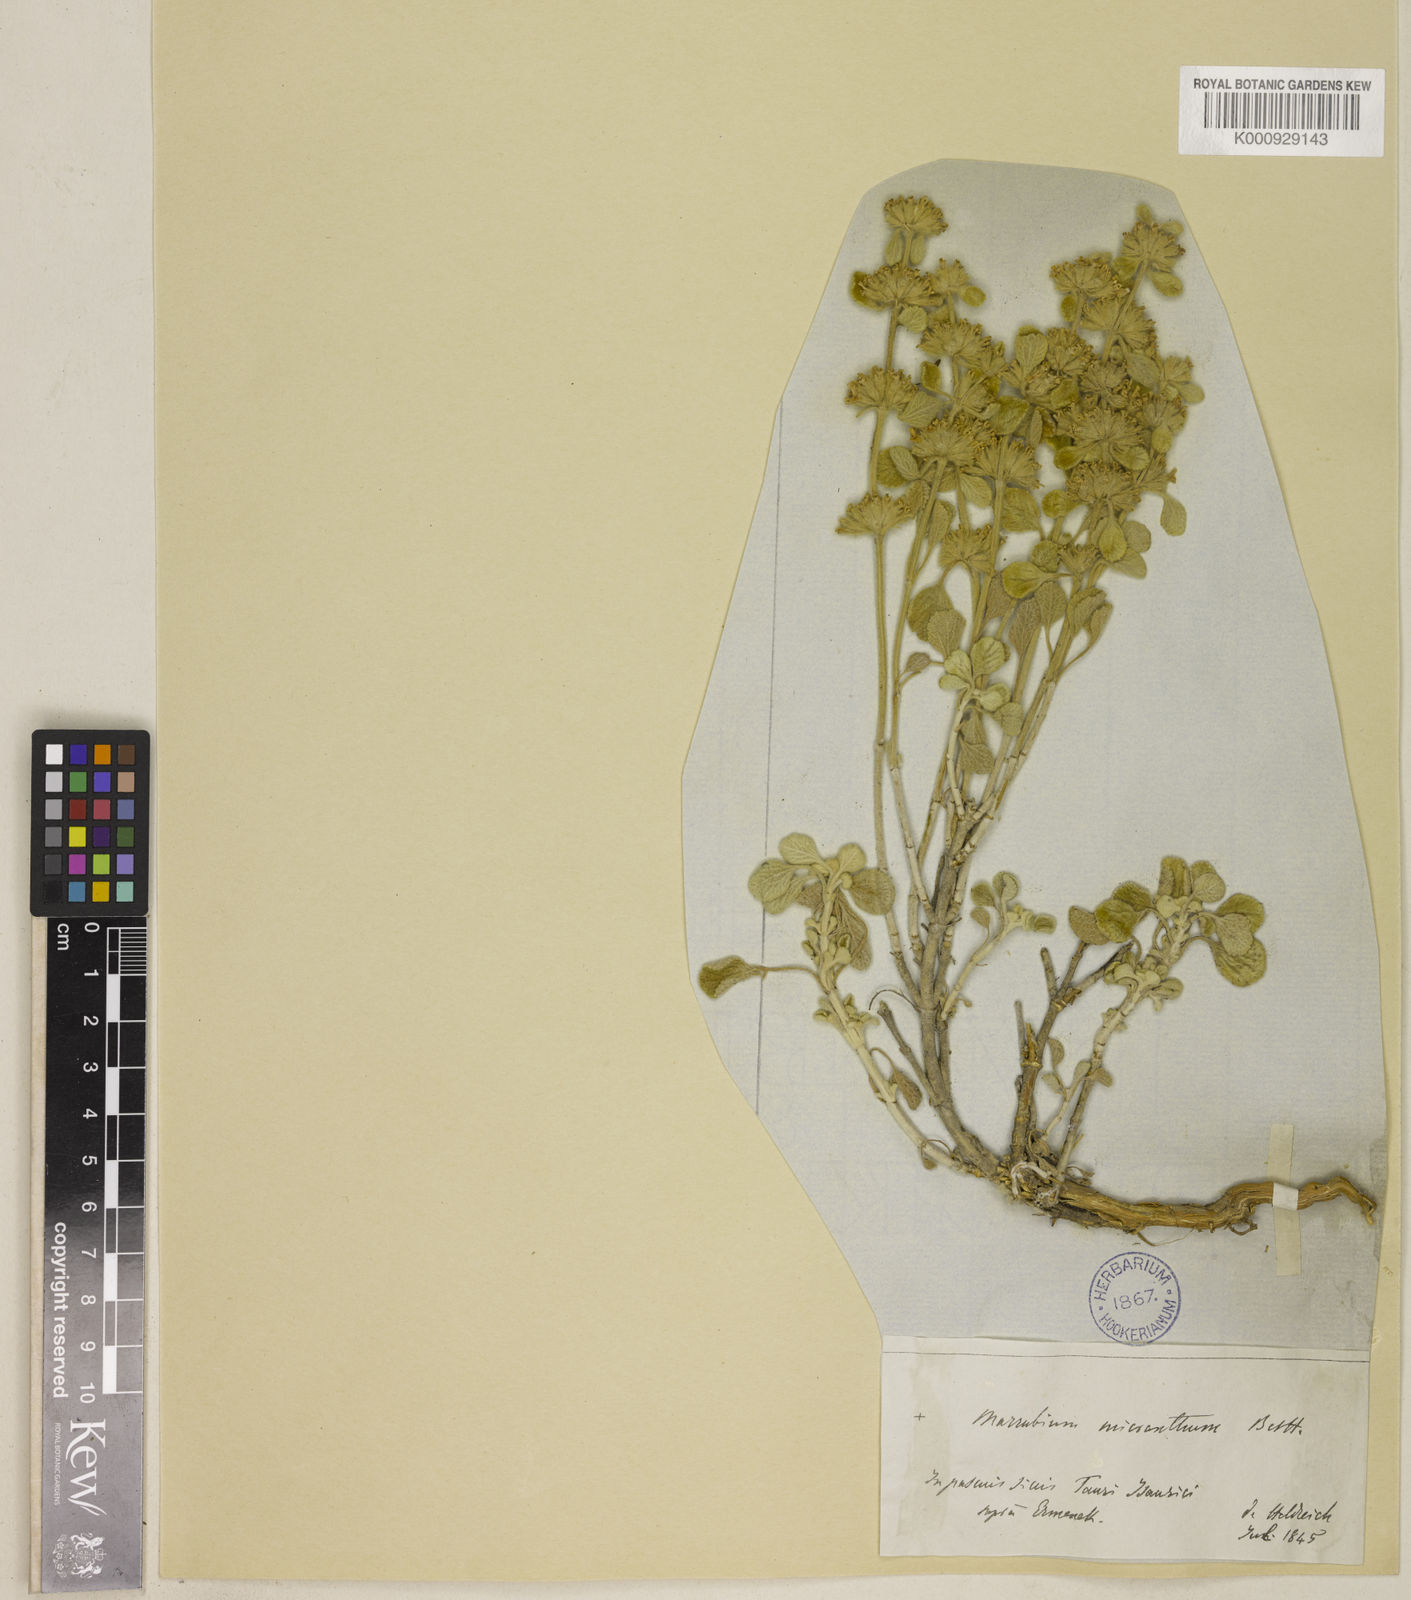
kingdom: Plantae
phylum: Tracheophyta
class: Magnoliopsida
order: Lamiales
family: Lamiaceae
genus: Marrubium
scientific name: Marrubium globosum
